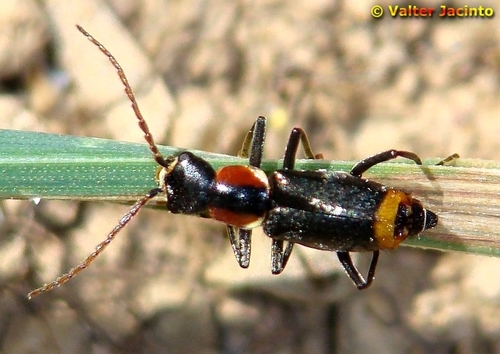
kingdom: Animalia
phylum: Arthropoda
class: Insecta
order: Coleoptera
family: Melyridae
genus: Axinotarsus
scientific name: Axinotarsus pulicarius
